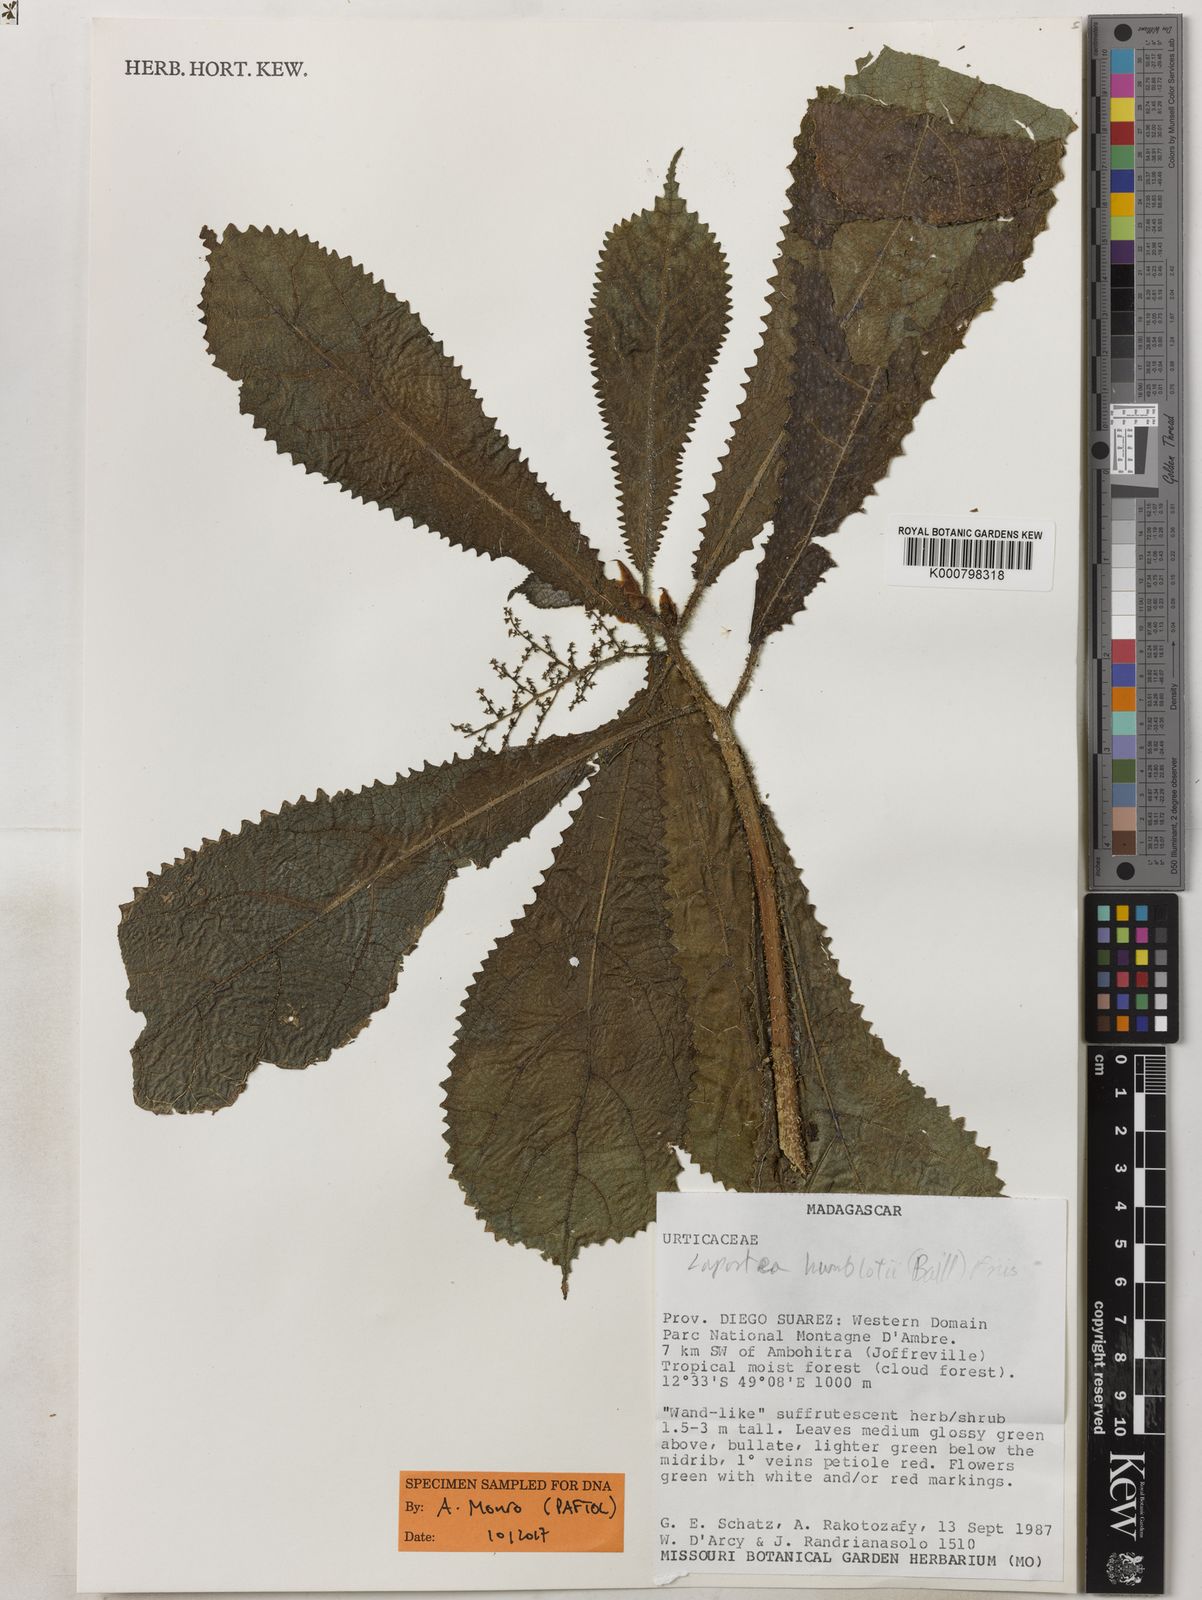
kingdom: Plantae
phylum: Tracheophyta
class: Magnoliopsida
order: Rosales
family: Urticaceae
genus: Laportea
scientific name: Laportea humblotii
